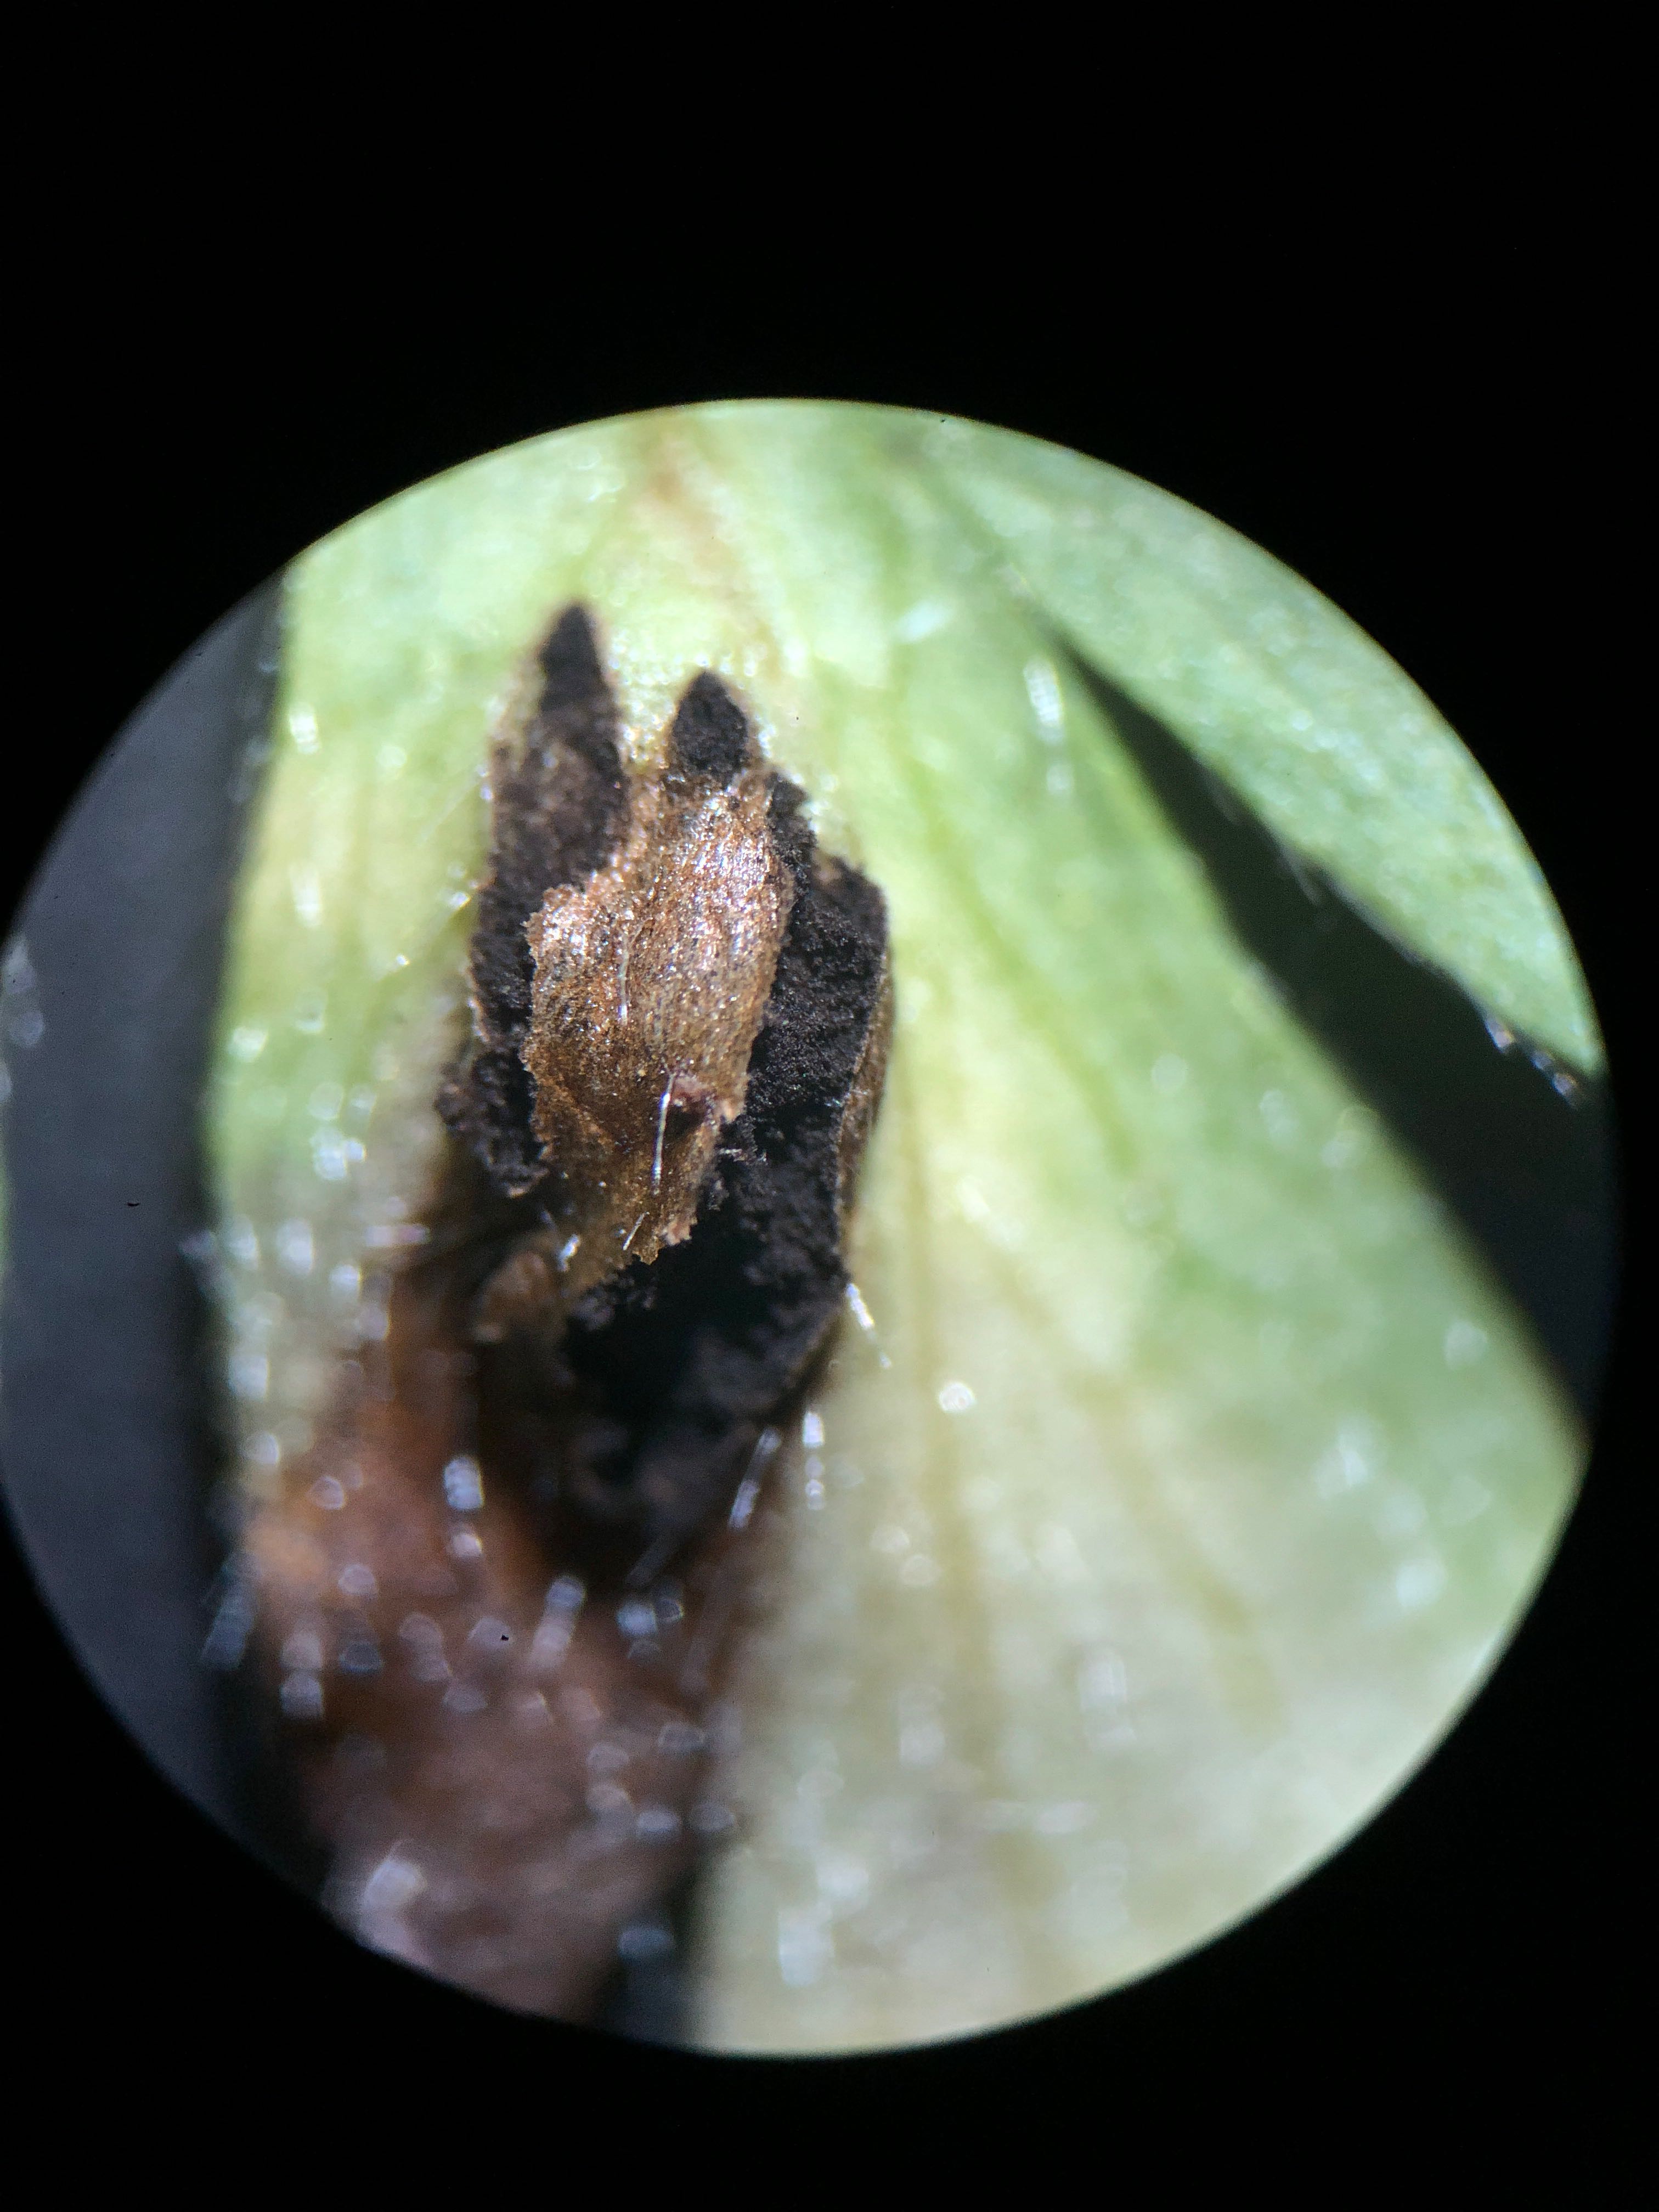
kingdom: Fungi
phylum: Basidiomycota
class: Ustilaginomycetes
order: Urocystidales
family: Urocystidaceae
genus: Urocystis
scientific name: Urocystis anemones
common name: anemone-brand
